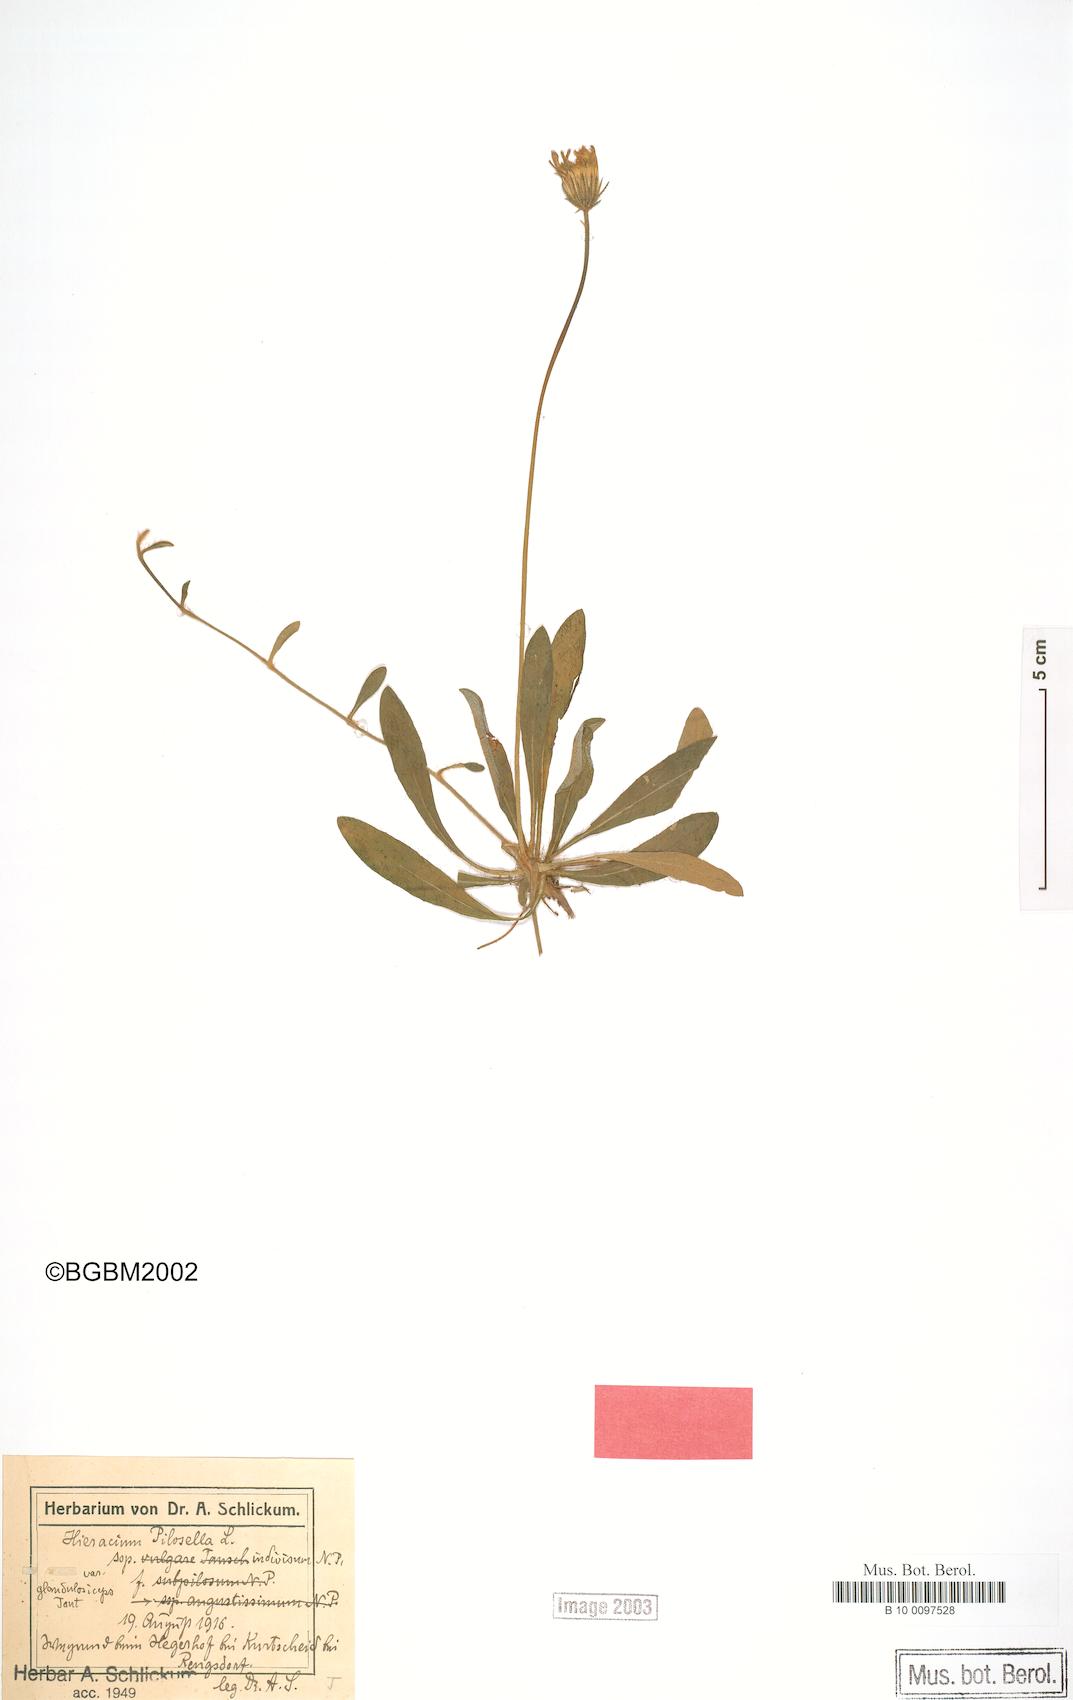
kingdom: Plantae
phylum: Tracheophyta
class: Magnoliopsida
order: Asterales
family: Asteraceae
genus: Pilosella
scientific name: Pilosella officinarum
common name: Mouse-ear hawkweed
